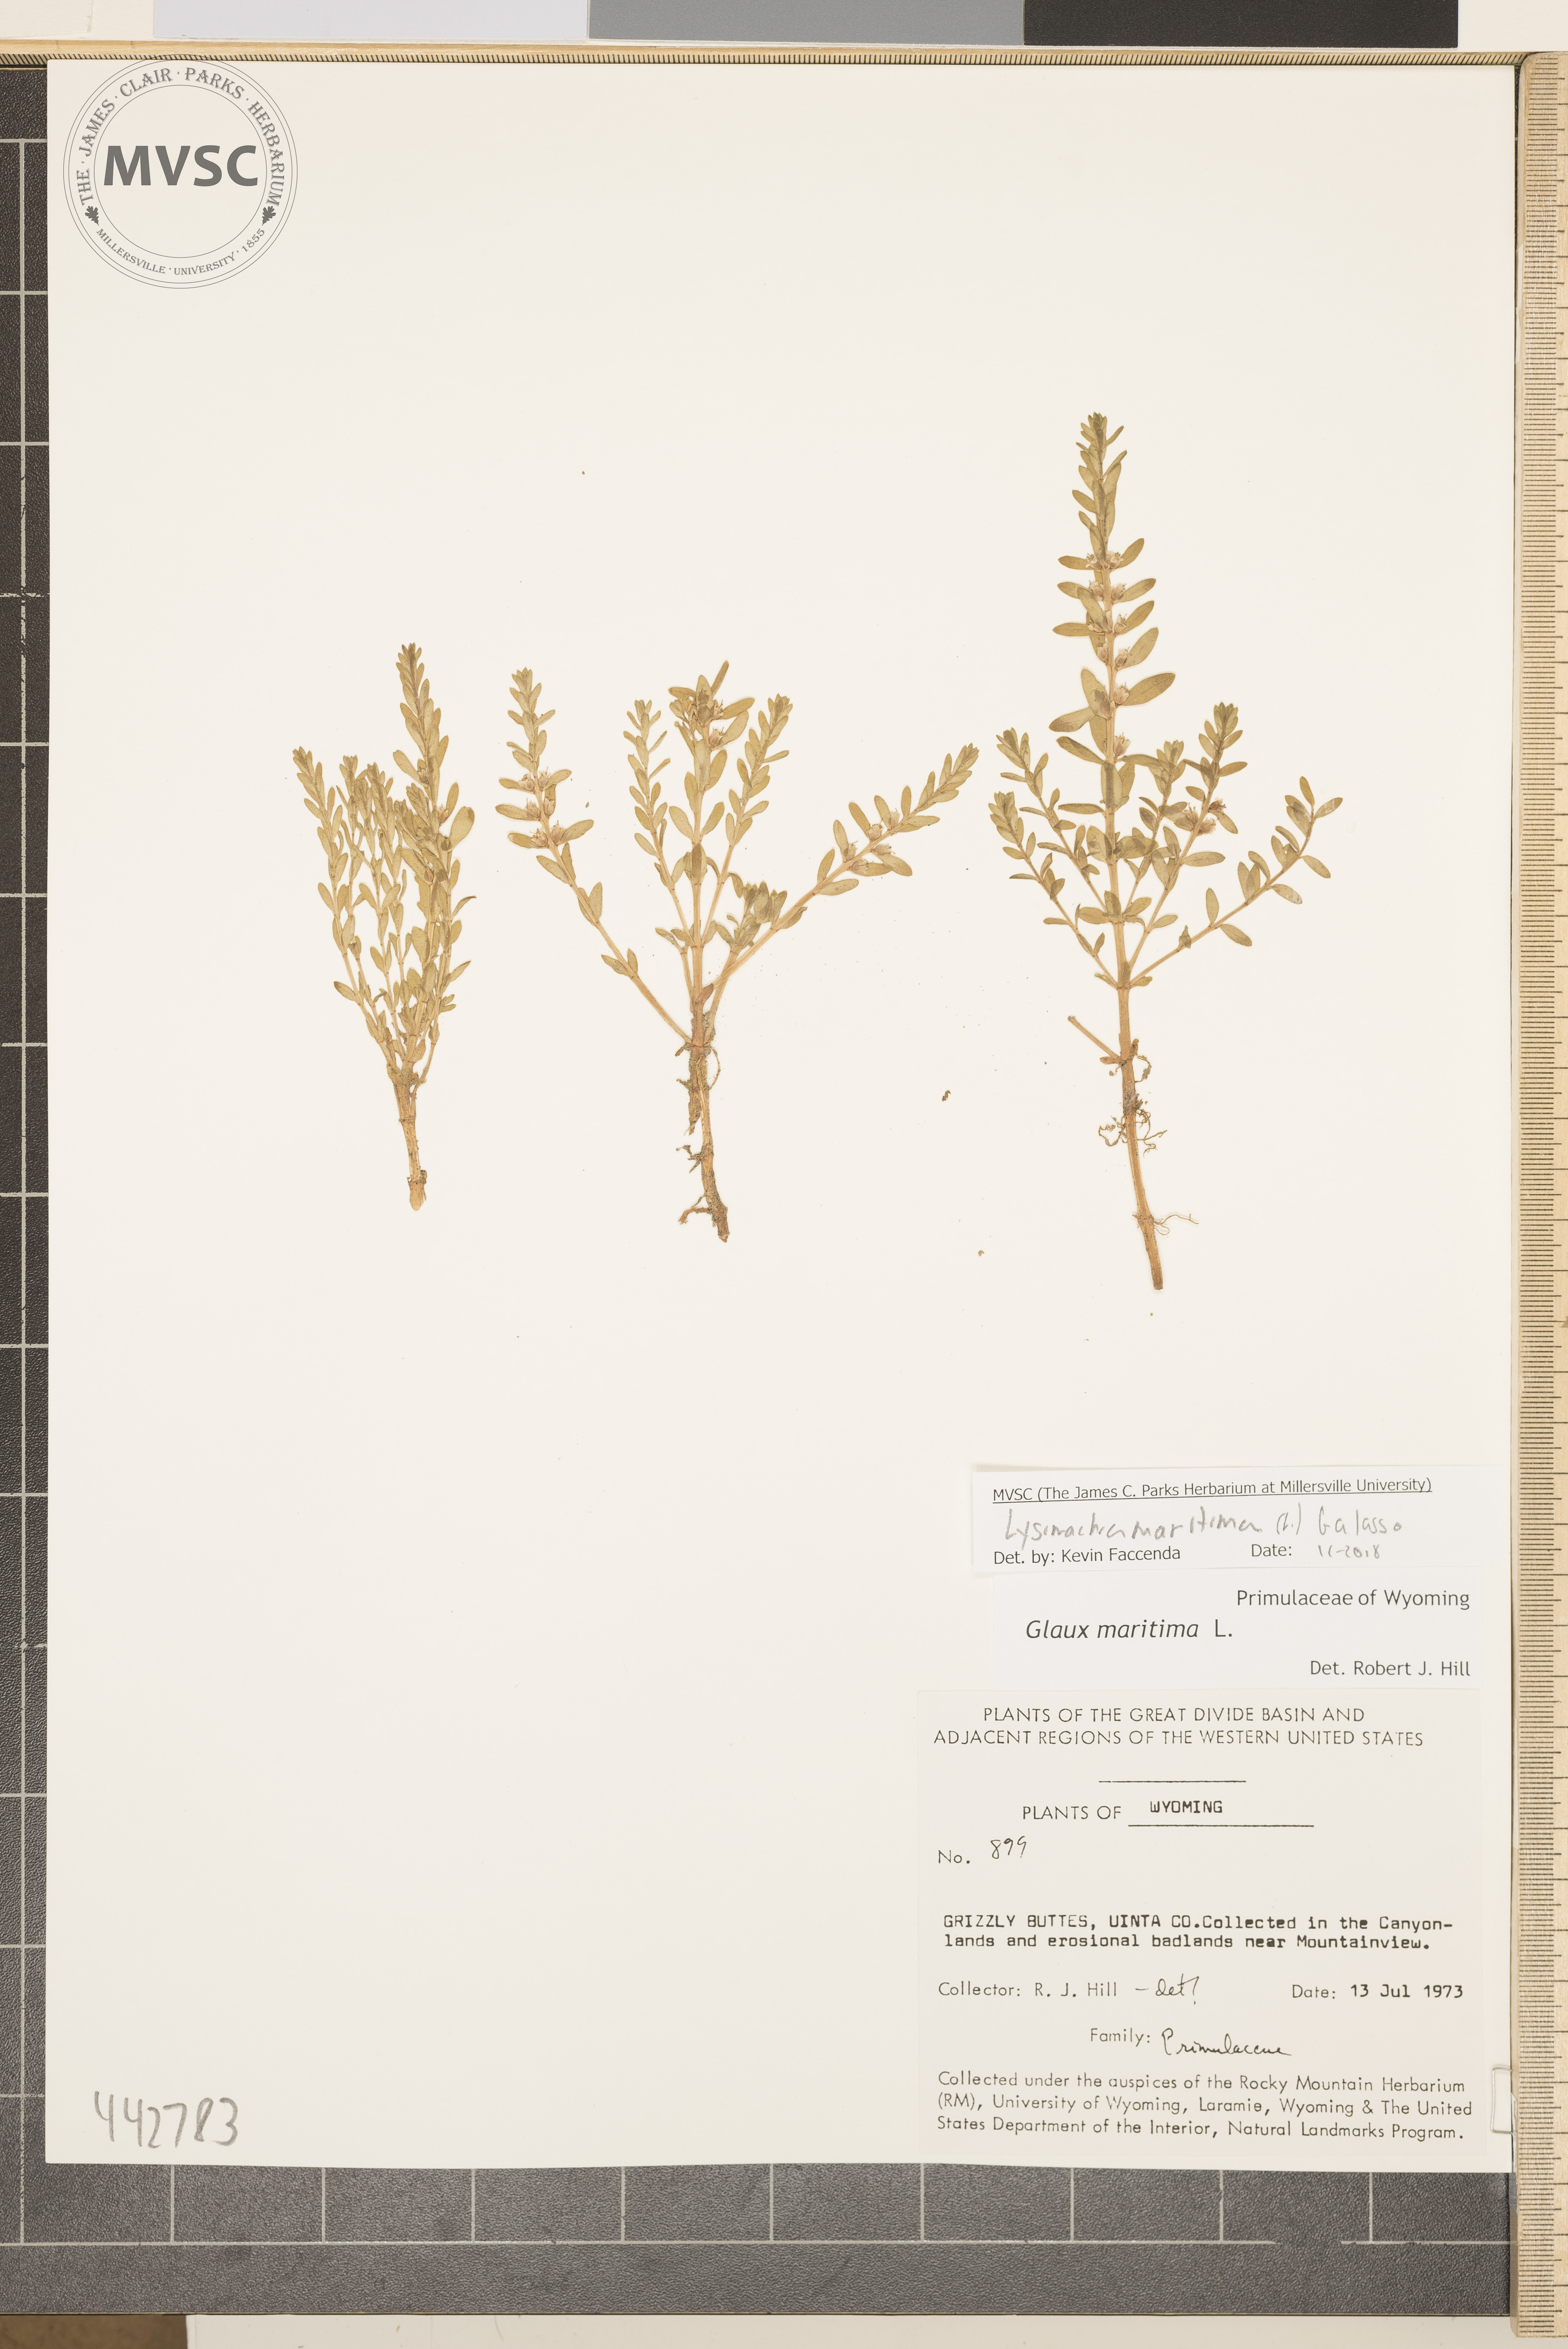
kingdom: Plantae
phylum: Tracheophyta
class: Magnoliopsida
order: Ericales
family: Primulaceae
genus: Lysimachia
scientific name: Lysimachia maritima
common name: Sea milkwort
